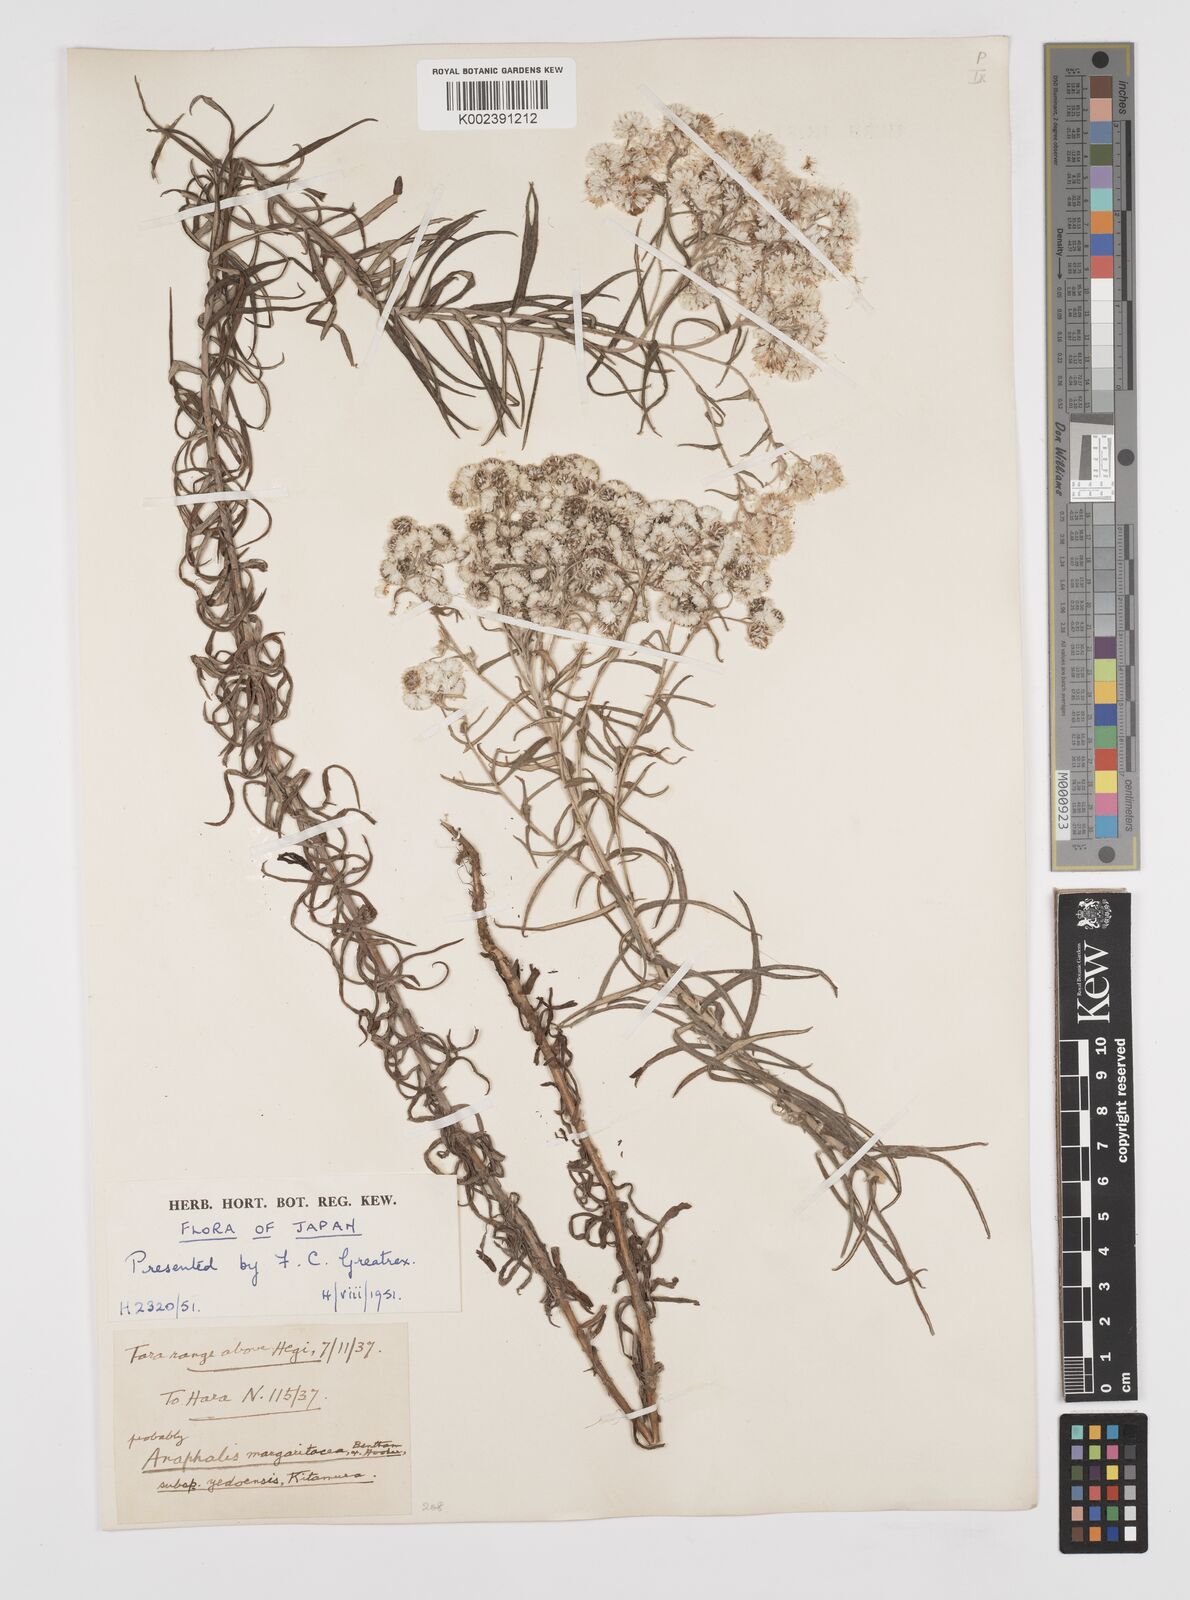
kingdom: Plantae
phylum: Tracheophyta
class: Magnoliopsida
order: Asterales
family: Asteraceae
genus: Anaphalis
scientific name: Anaphalis margaritacea
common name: Pearly everlasting
